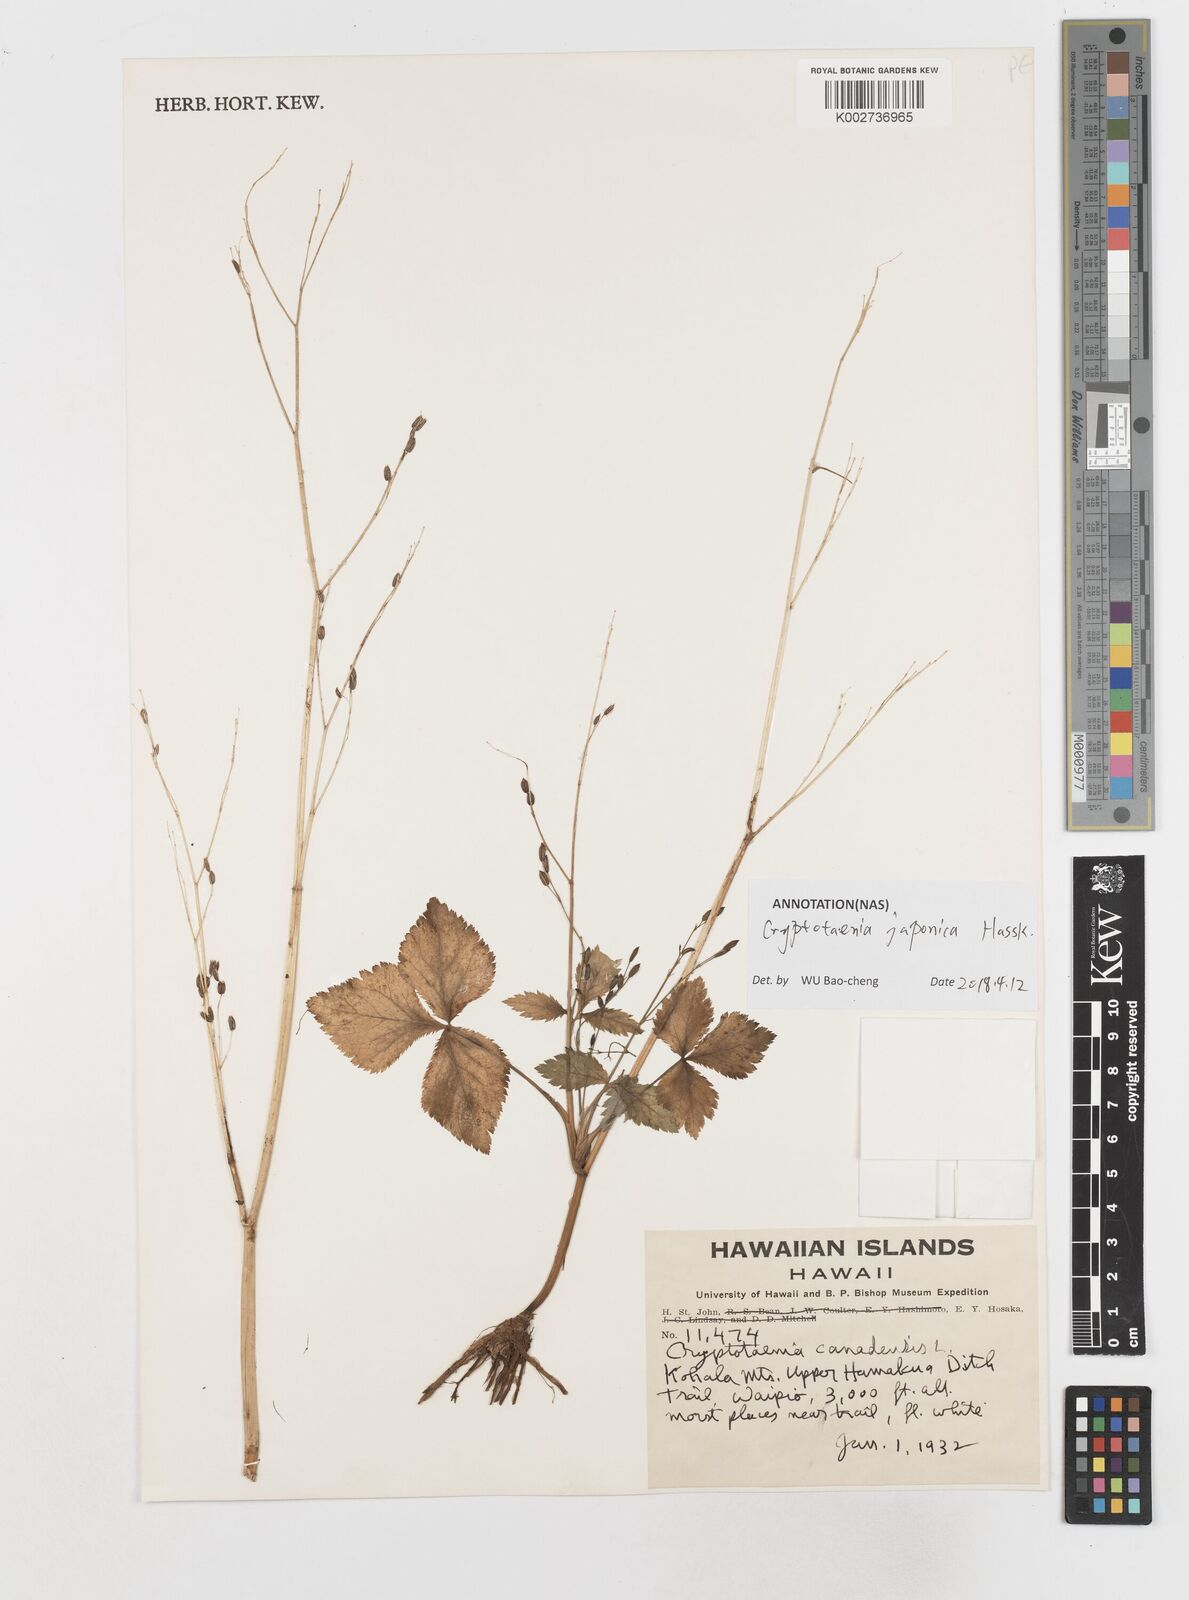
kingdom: Plantae
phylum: Tracheophyta
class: Magnoliopsida
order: Apiales
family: Apiaceae
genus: Cryptotaenia
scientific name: Cryptotaenia canadensis
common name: Honewort
